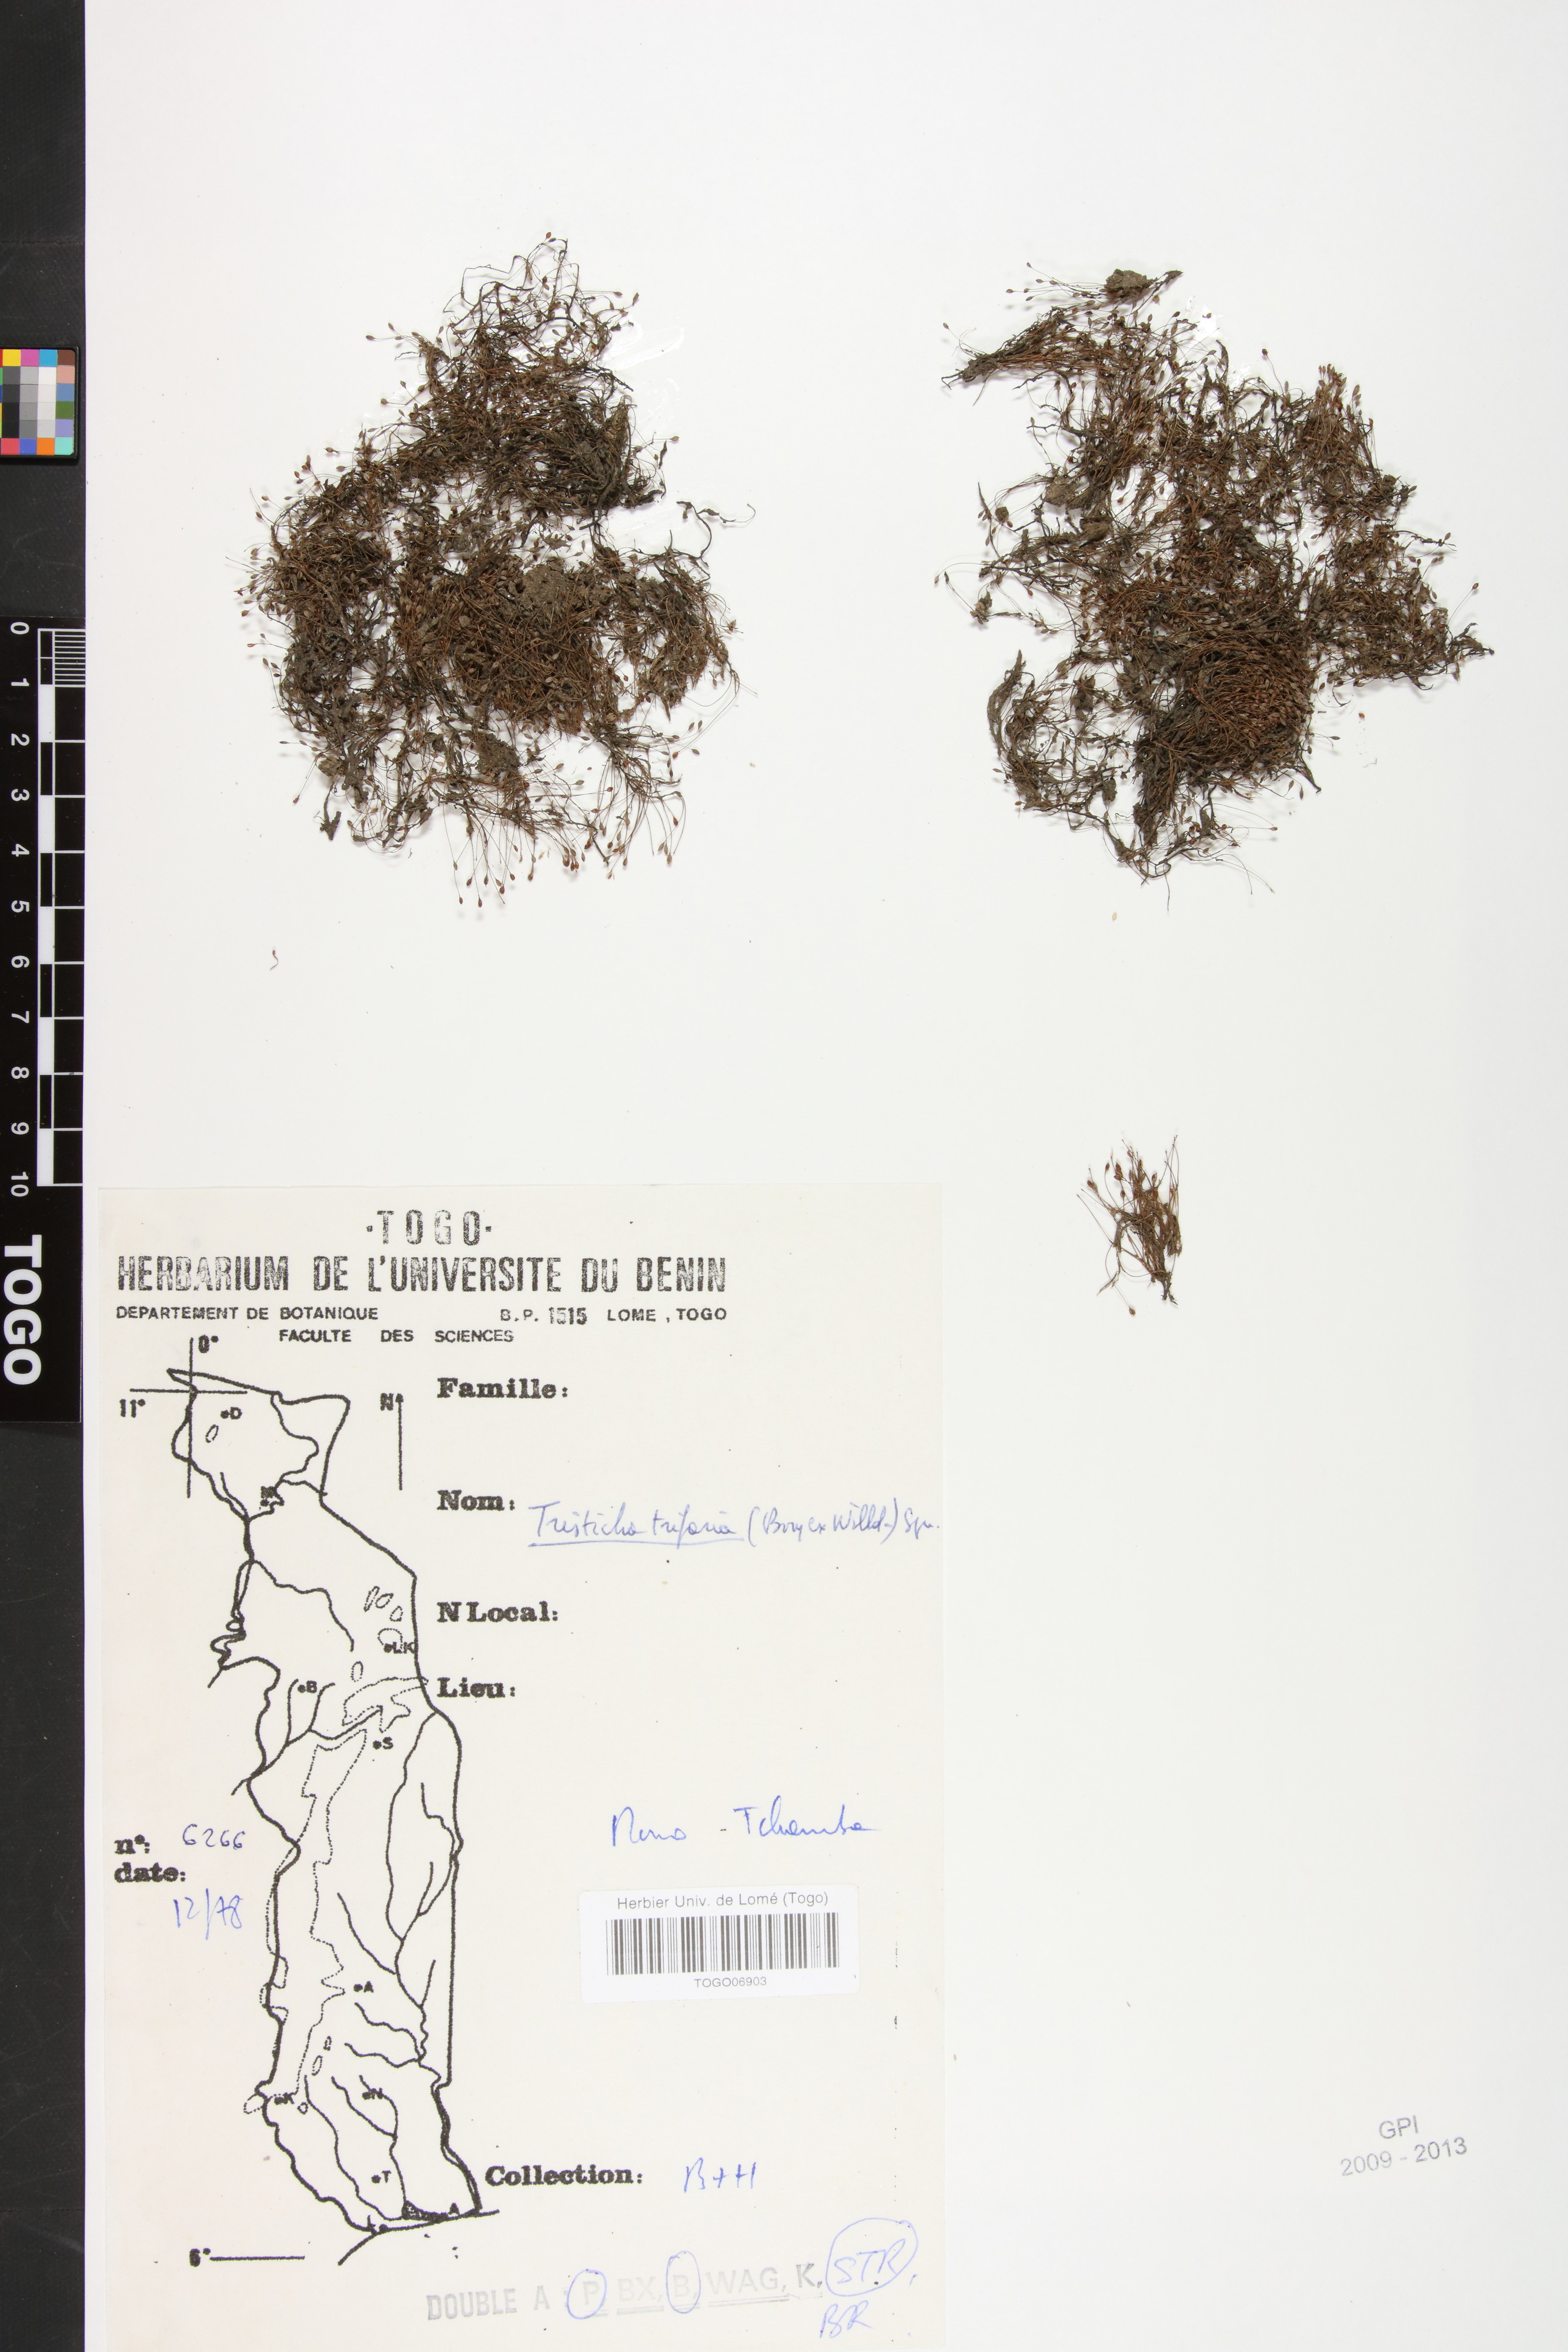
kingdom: Plantae
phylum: Tracheophyta
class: Magnoliopsida
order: Malpighiales
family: Podostemaceae
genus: Tristicha
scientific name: Tristicha trifaria
